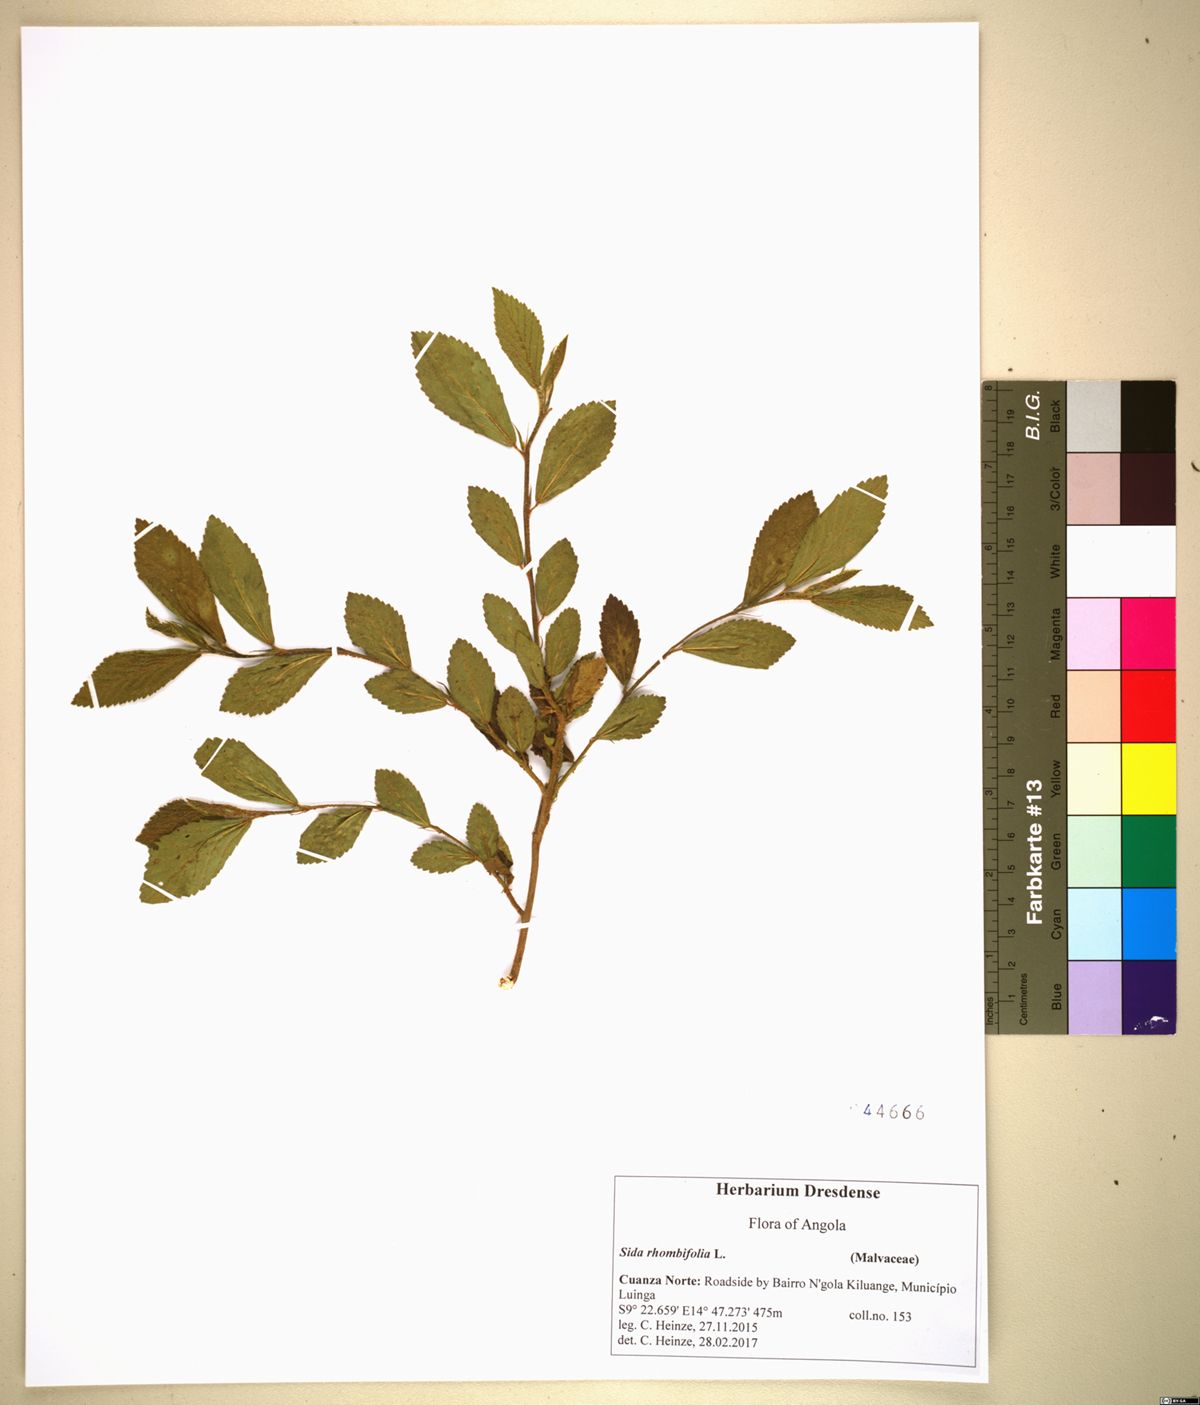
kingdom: Plantae
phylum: Tracheophyta
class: Magnoliopsida
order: Malvales
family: Malvaceae
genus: Sida
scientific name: Sida rhombifolia
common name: Queensland-hemp
